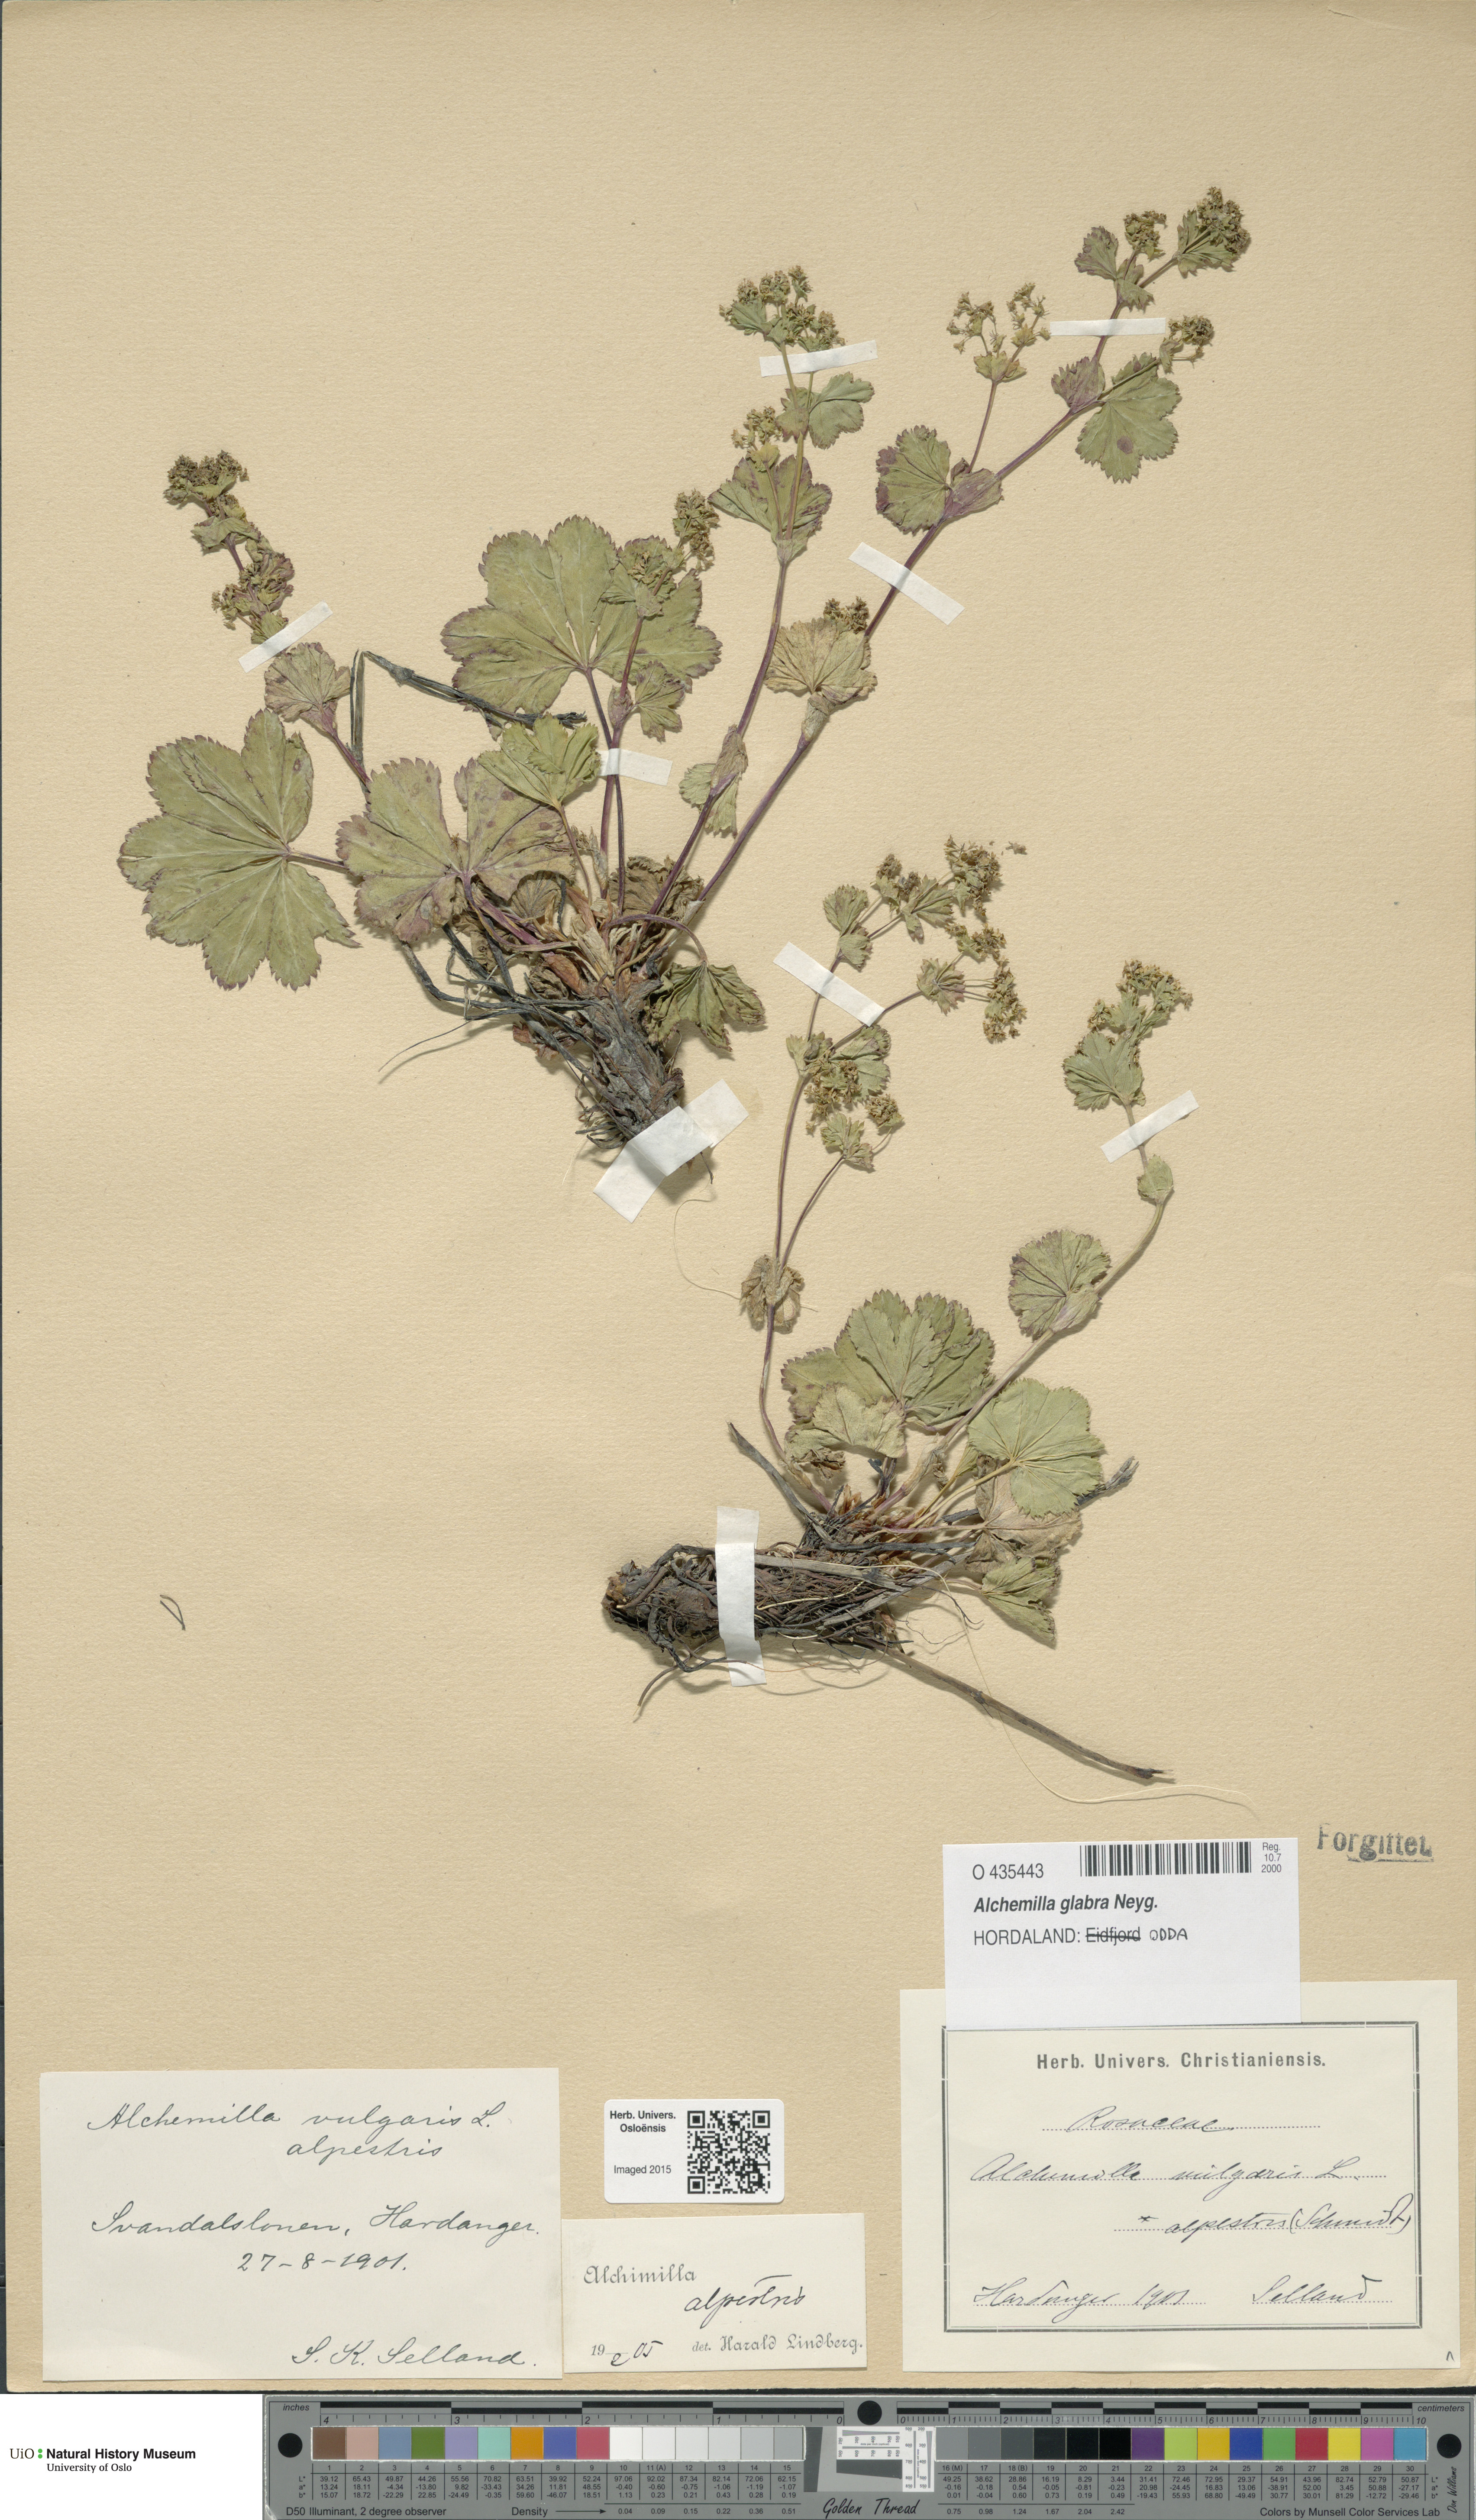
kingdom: Plantae
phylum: Tracheophyta
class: Magnoliopsida
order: Rosales
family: Rosaceae
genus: Alchemilla
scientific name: Alchemilla glabra
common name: Smooth lady's-mantle
